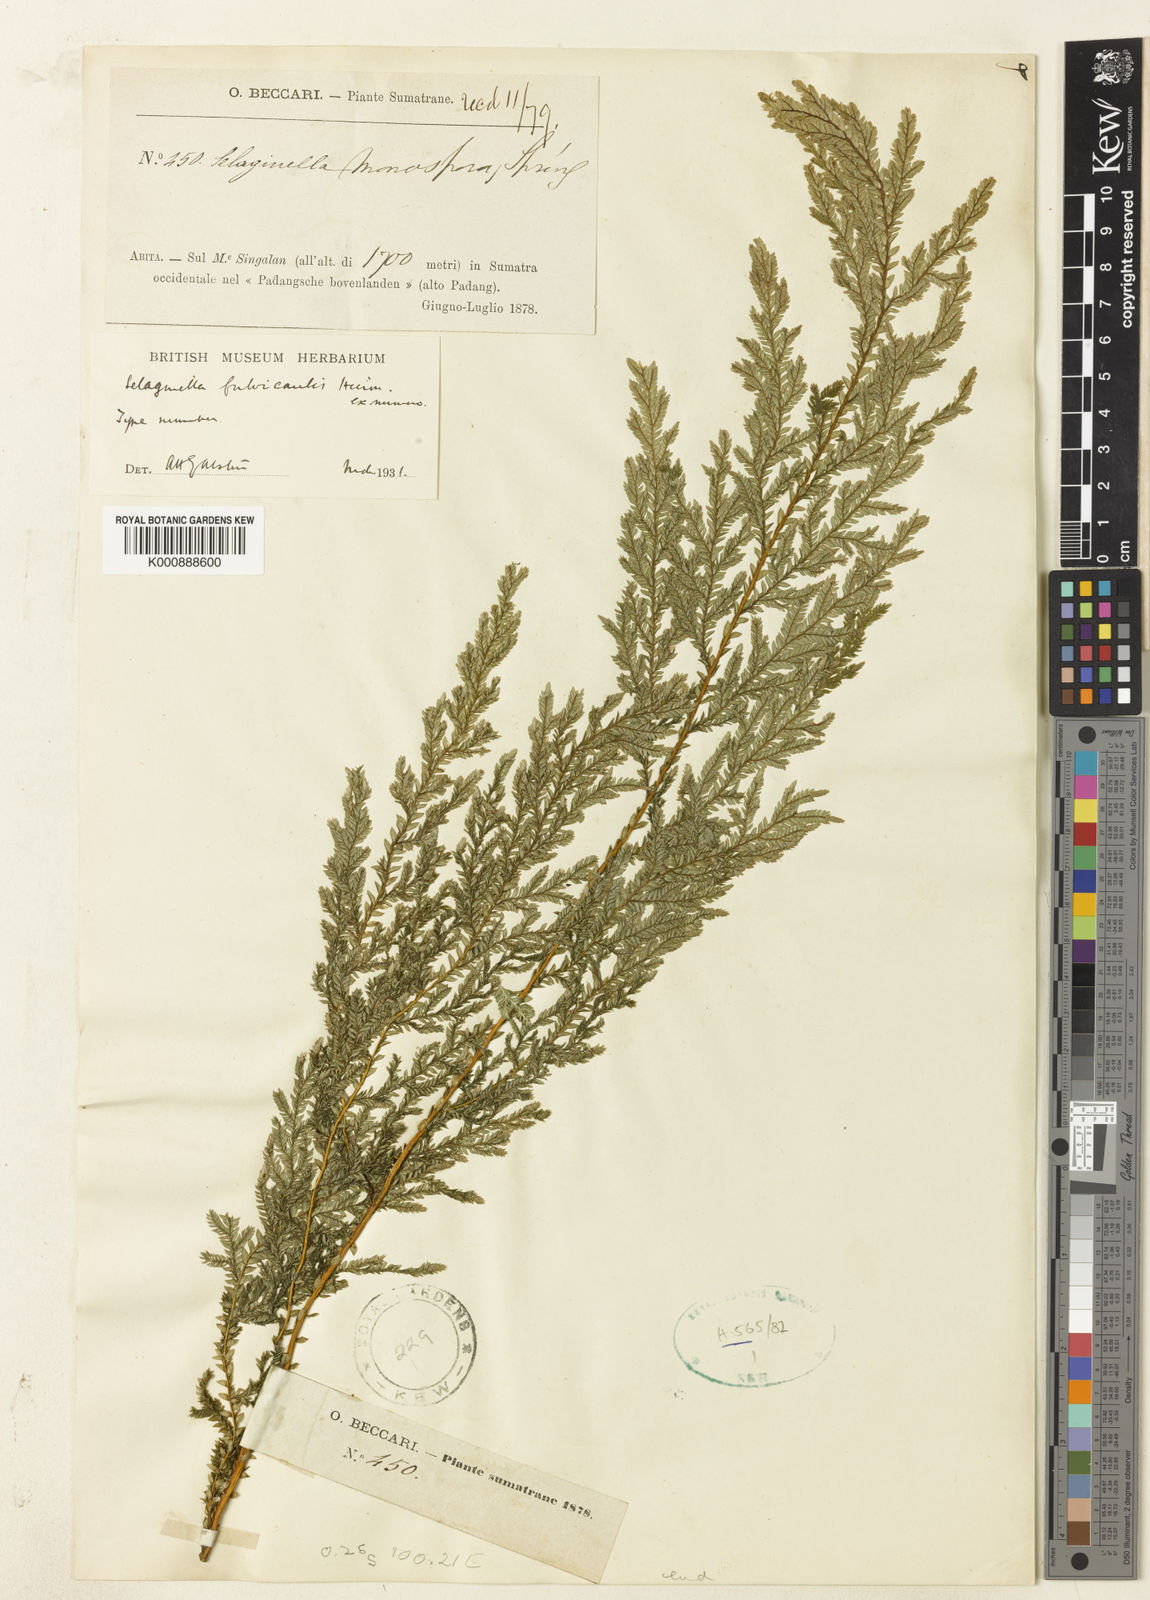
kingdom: Plantae
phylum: Tracheophyta
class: Lycopodiopsida
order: Selaginellales
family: Selaginellaceae
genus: Selaginella
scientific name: Selaginella fulvicaulis
